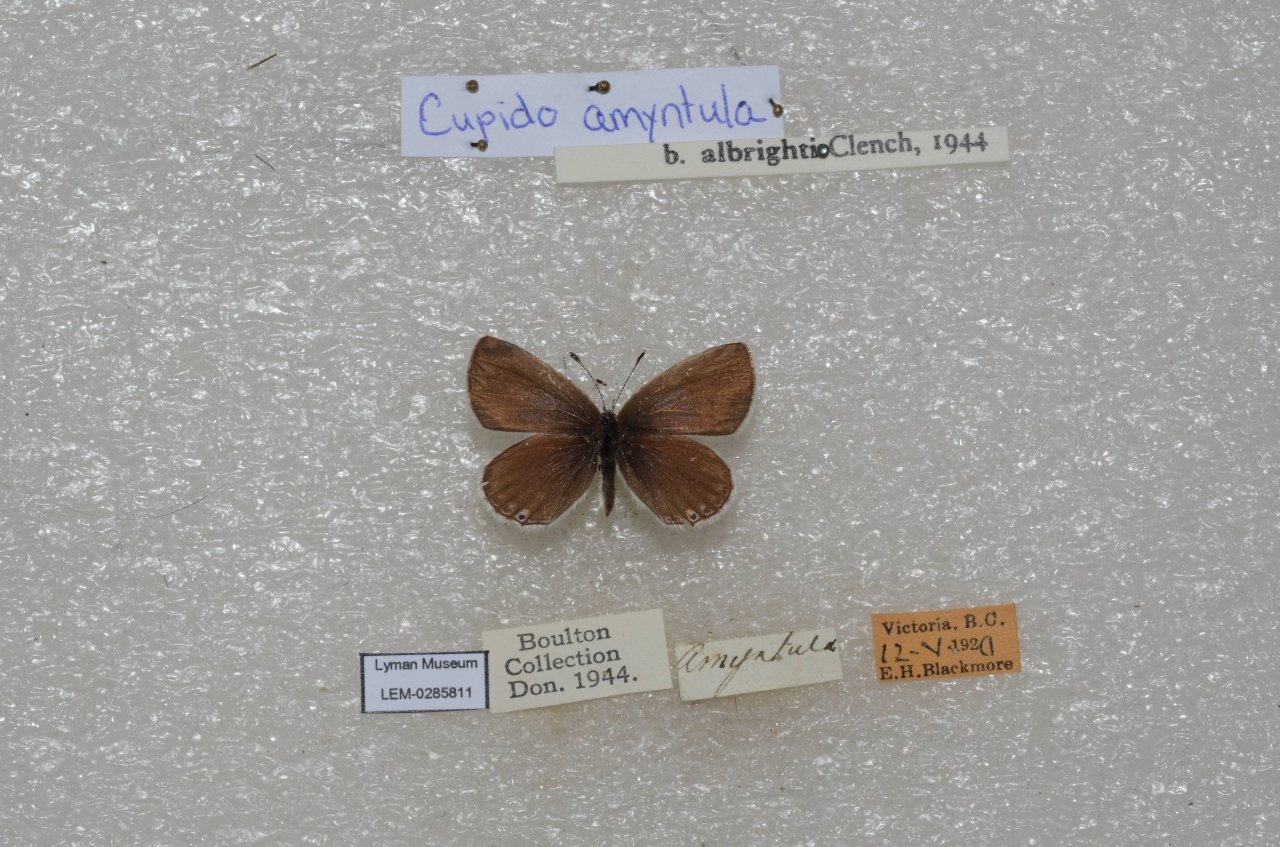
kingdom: Animalia
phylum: Arthropoda
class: Insecta
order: Lepidoptera
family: Lycaenidae
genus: Elkalyce
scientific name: Elkalyce amyntula
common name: Western Tailed-Blue
